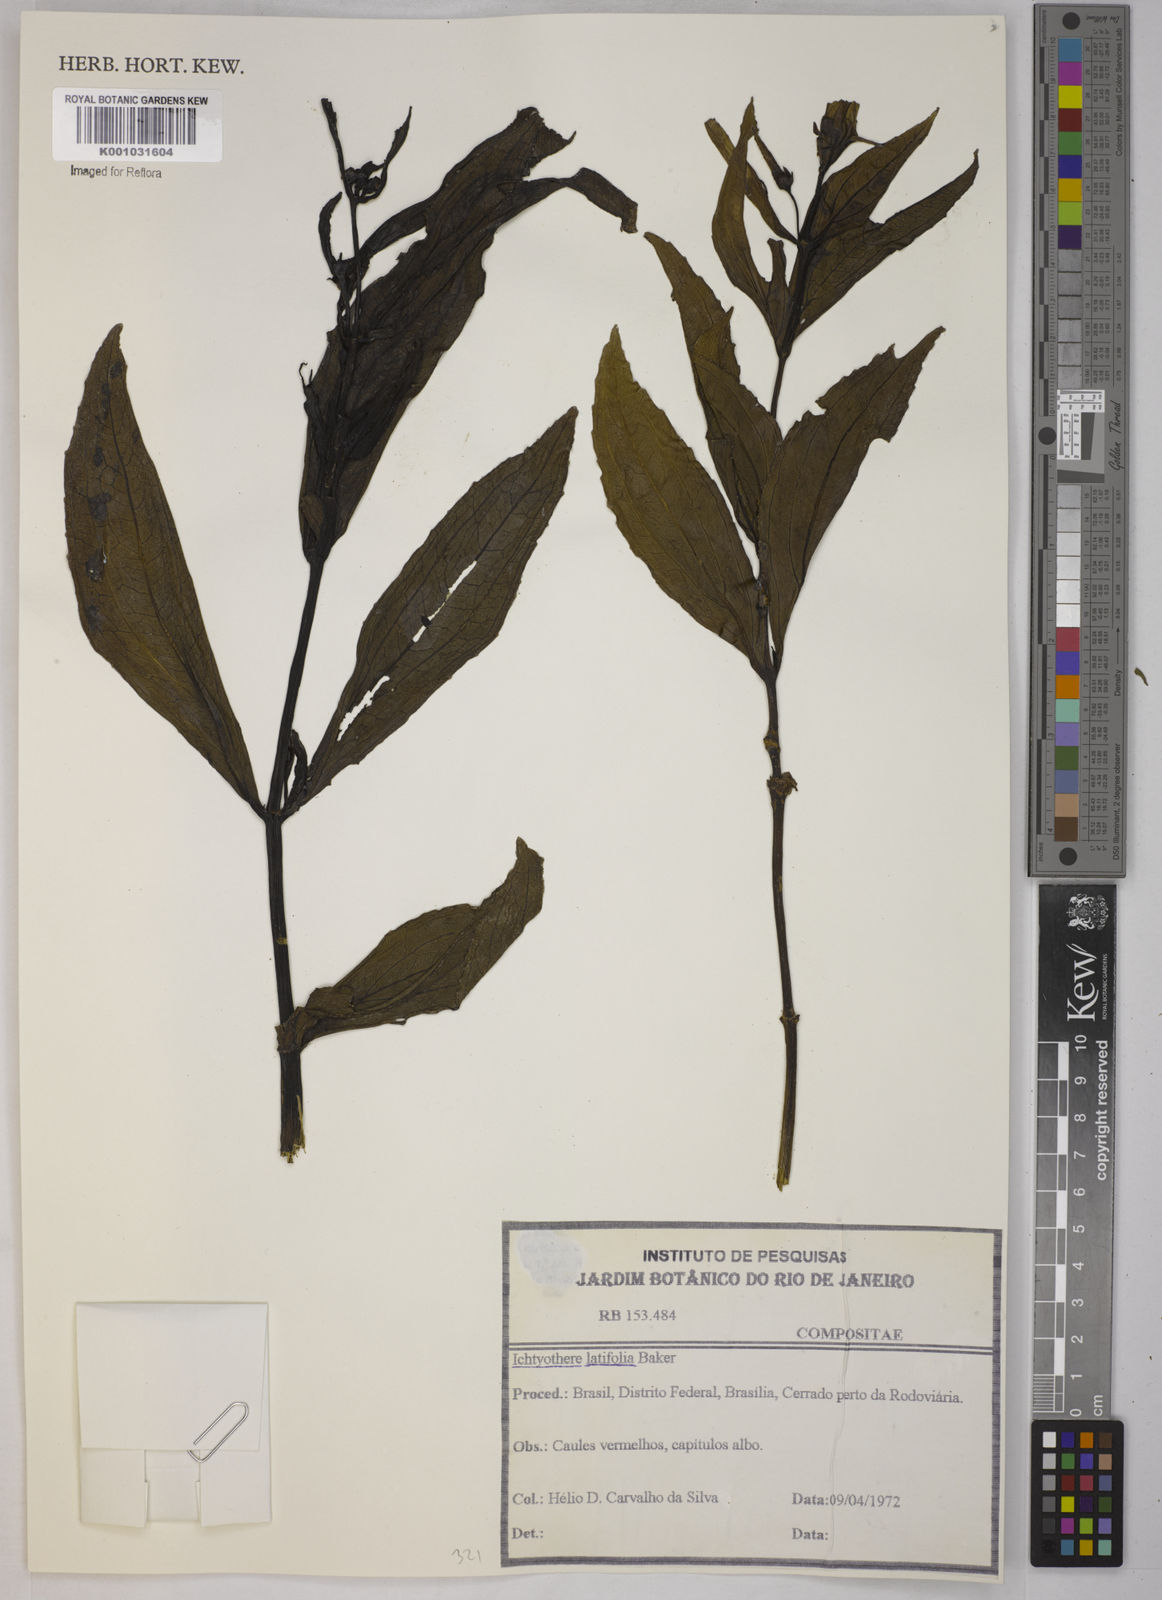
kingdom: Plantae
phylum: Tracheophyta
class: Magnoliopsida
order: Asterales
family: Asteraceae
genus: Ichthyothere
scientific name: Ichthyothere latifolia
